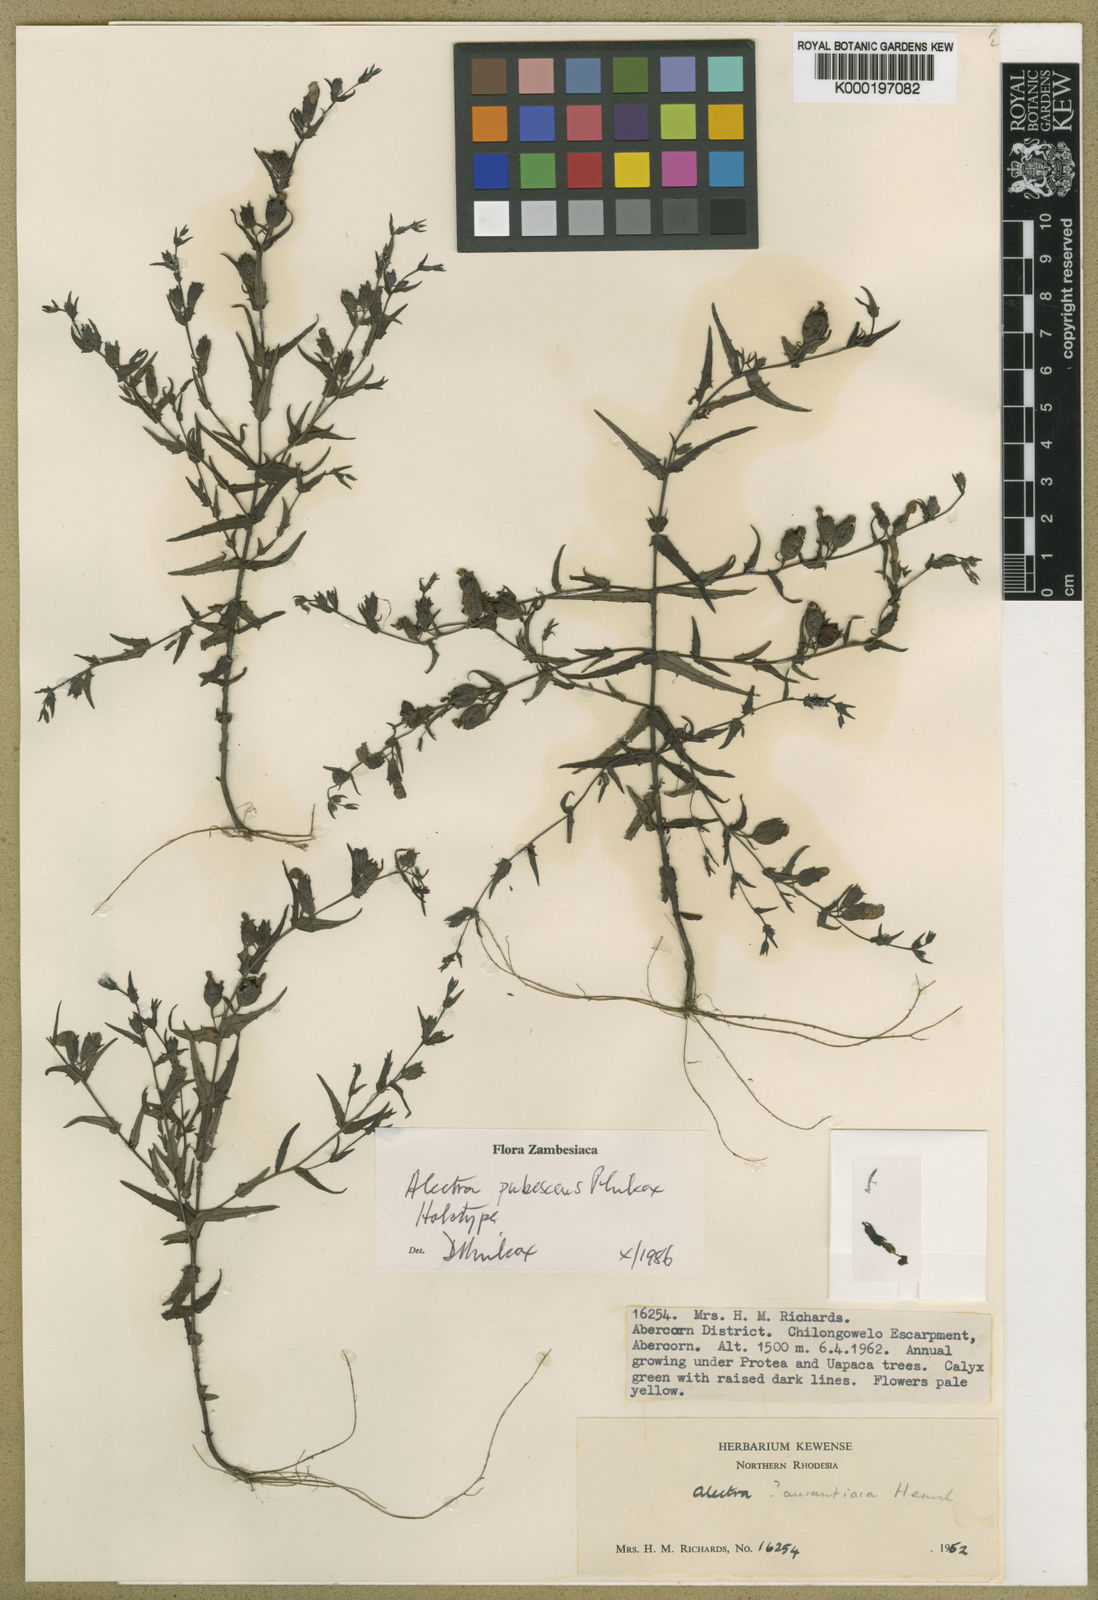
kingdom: Plantae
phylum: Tracheophyta
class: Magnoliopsida
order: Lamiales
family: Orobanchaceae
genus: Alectra
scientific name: Alectra pubescens
